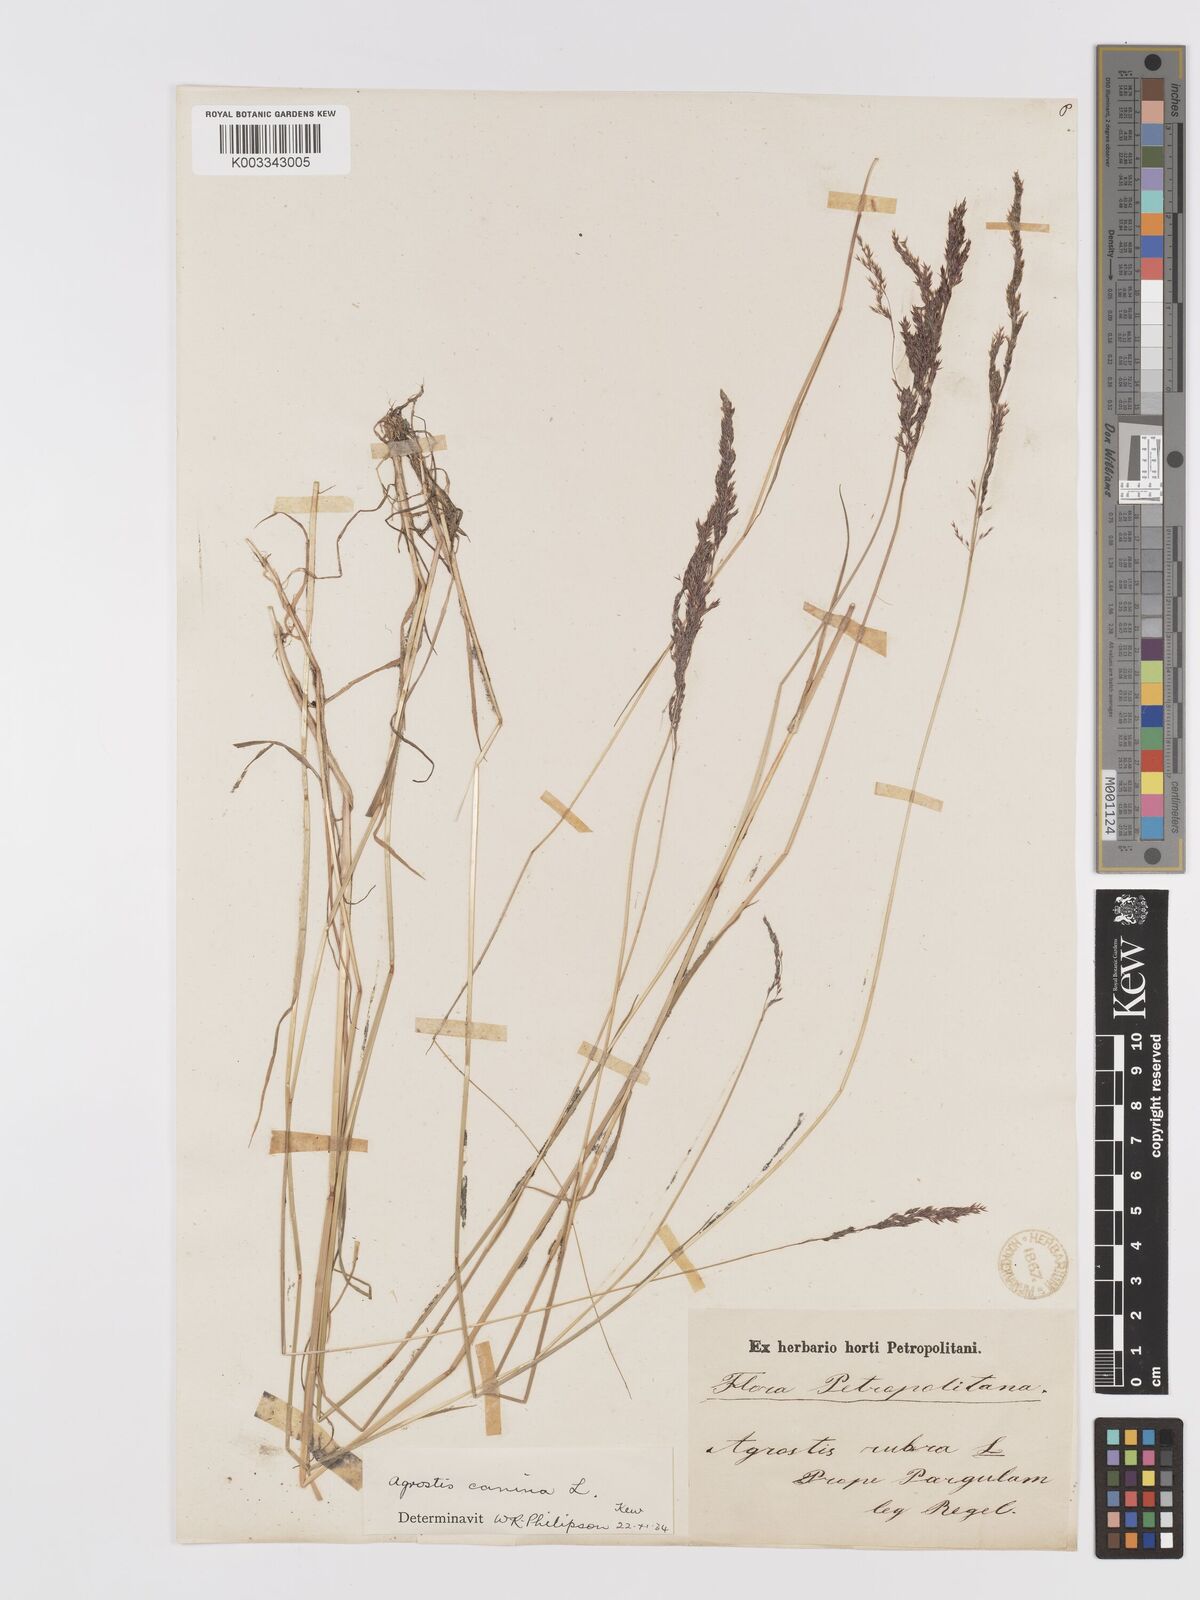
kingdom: Plantae
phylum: Tracheophyta
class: Liliopsida
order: Poales
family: Poaceae
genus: Agrostis
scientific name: Agrostis canina
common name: Velvet bent
